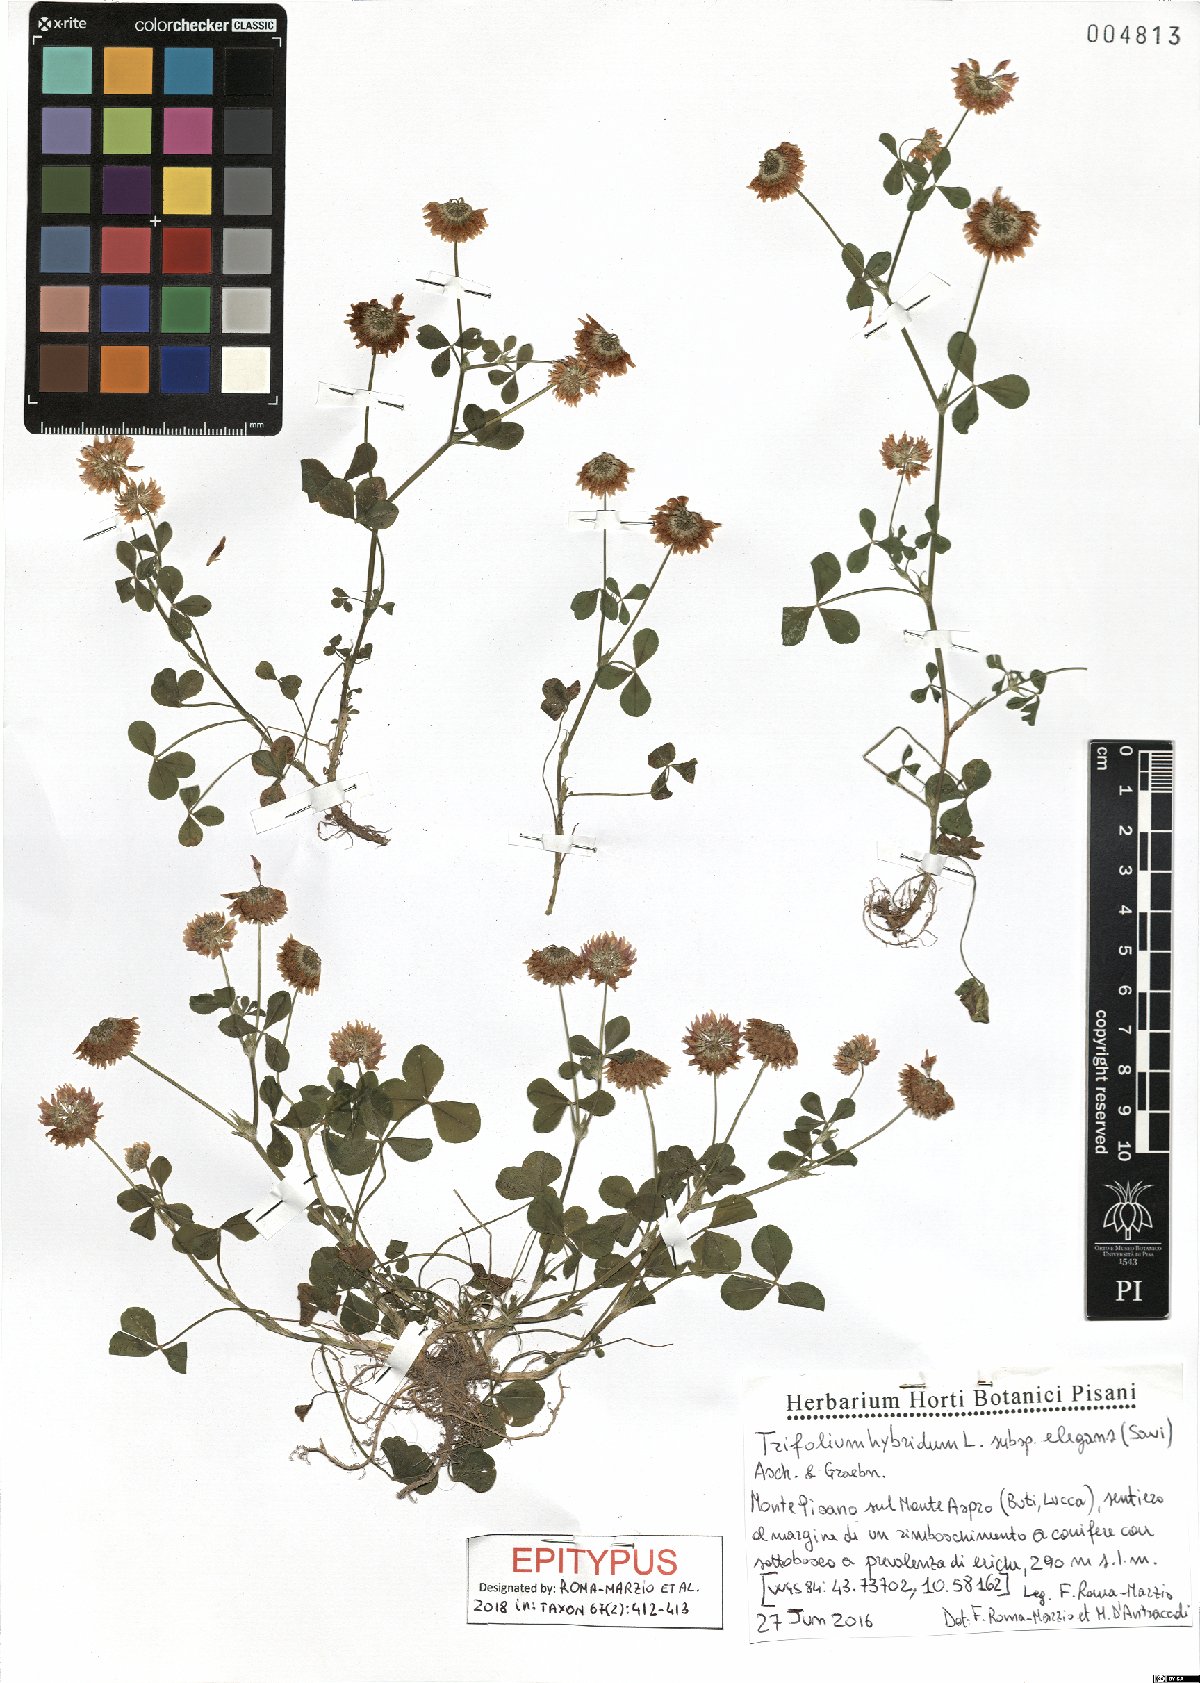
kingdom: Plantae
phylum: Tracheophyta
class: Magnoliopsida
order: Fabales
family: Fabaceae
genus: Trifolium
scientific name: Trifolium hybridum
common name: Alsike clover
